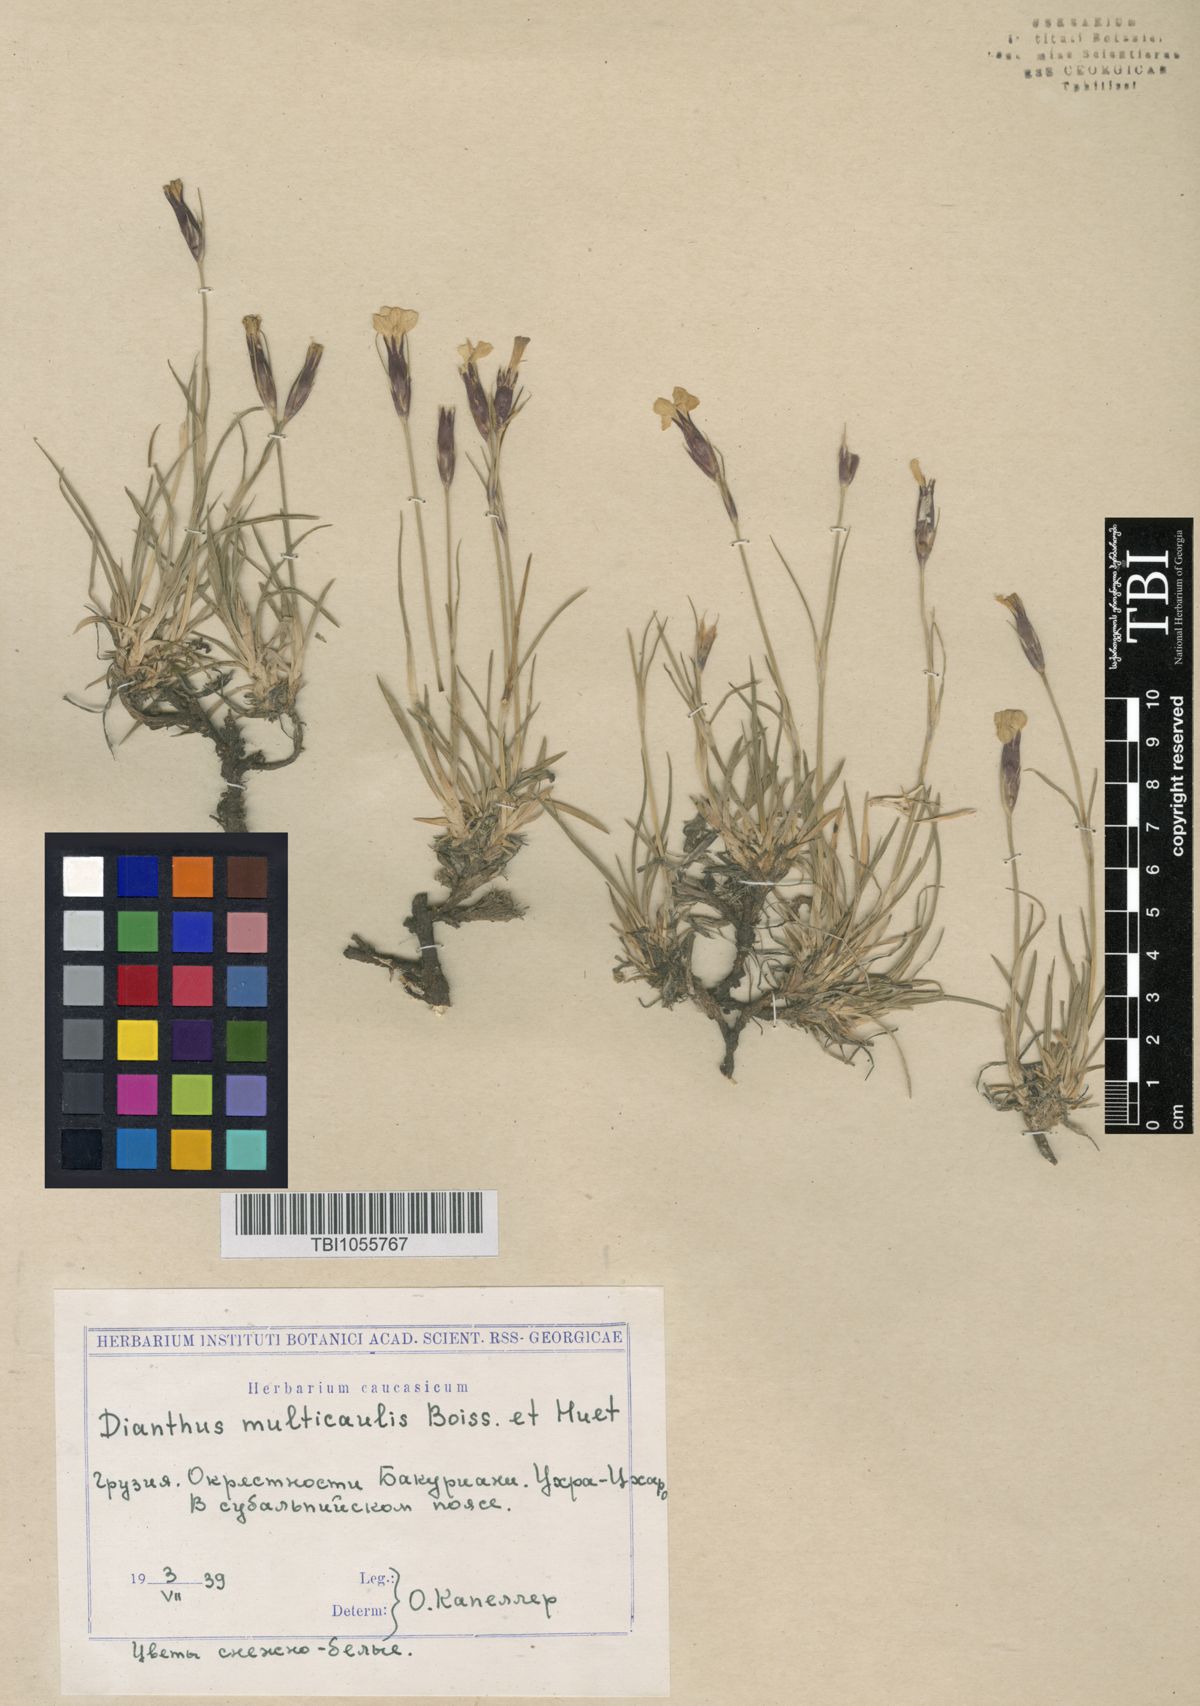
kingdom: Plantae
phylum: Tracheophyta
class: Magnoliopsida
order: Caryophyllales
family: Caryophyllaceae
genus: Dianthus
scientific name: Dianthus cretaceus
